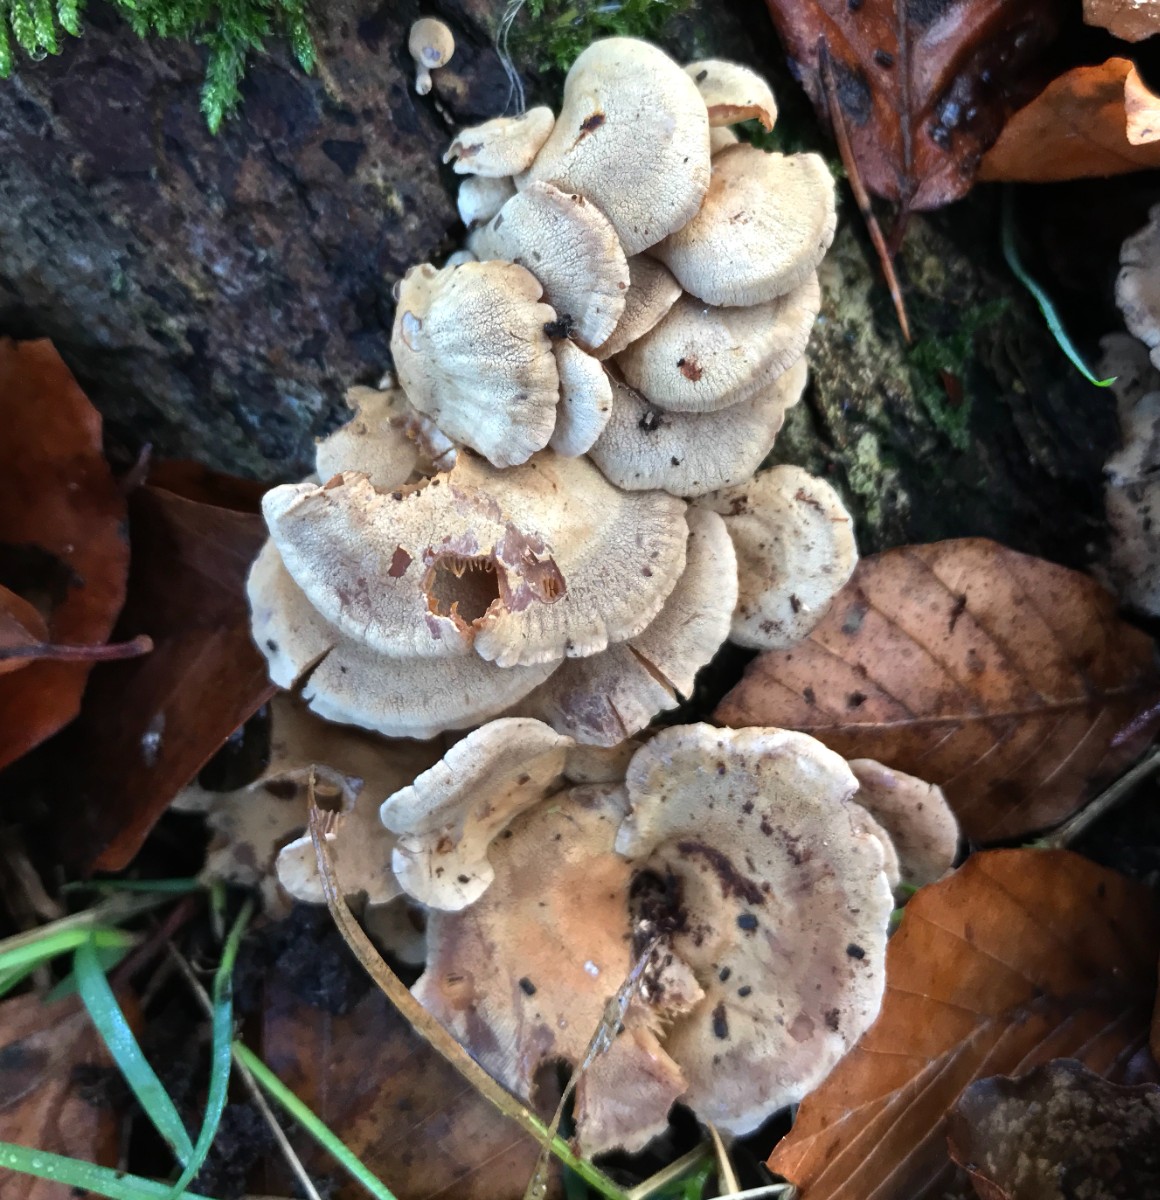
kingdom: Fungi
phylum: Basidiomycota
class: Agaricomycetes
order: Agaricales
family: Mycenaceae
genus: Panellus
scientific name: Panellus stipticus
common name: kliddet epaulethat
